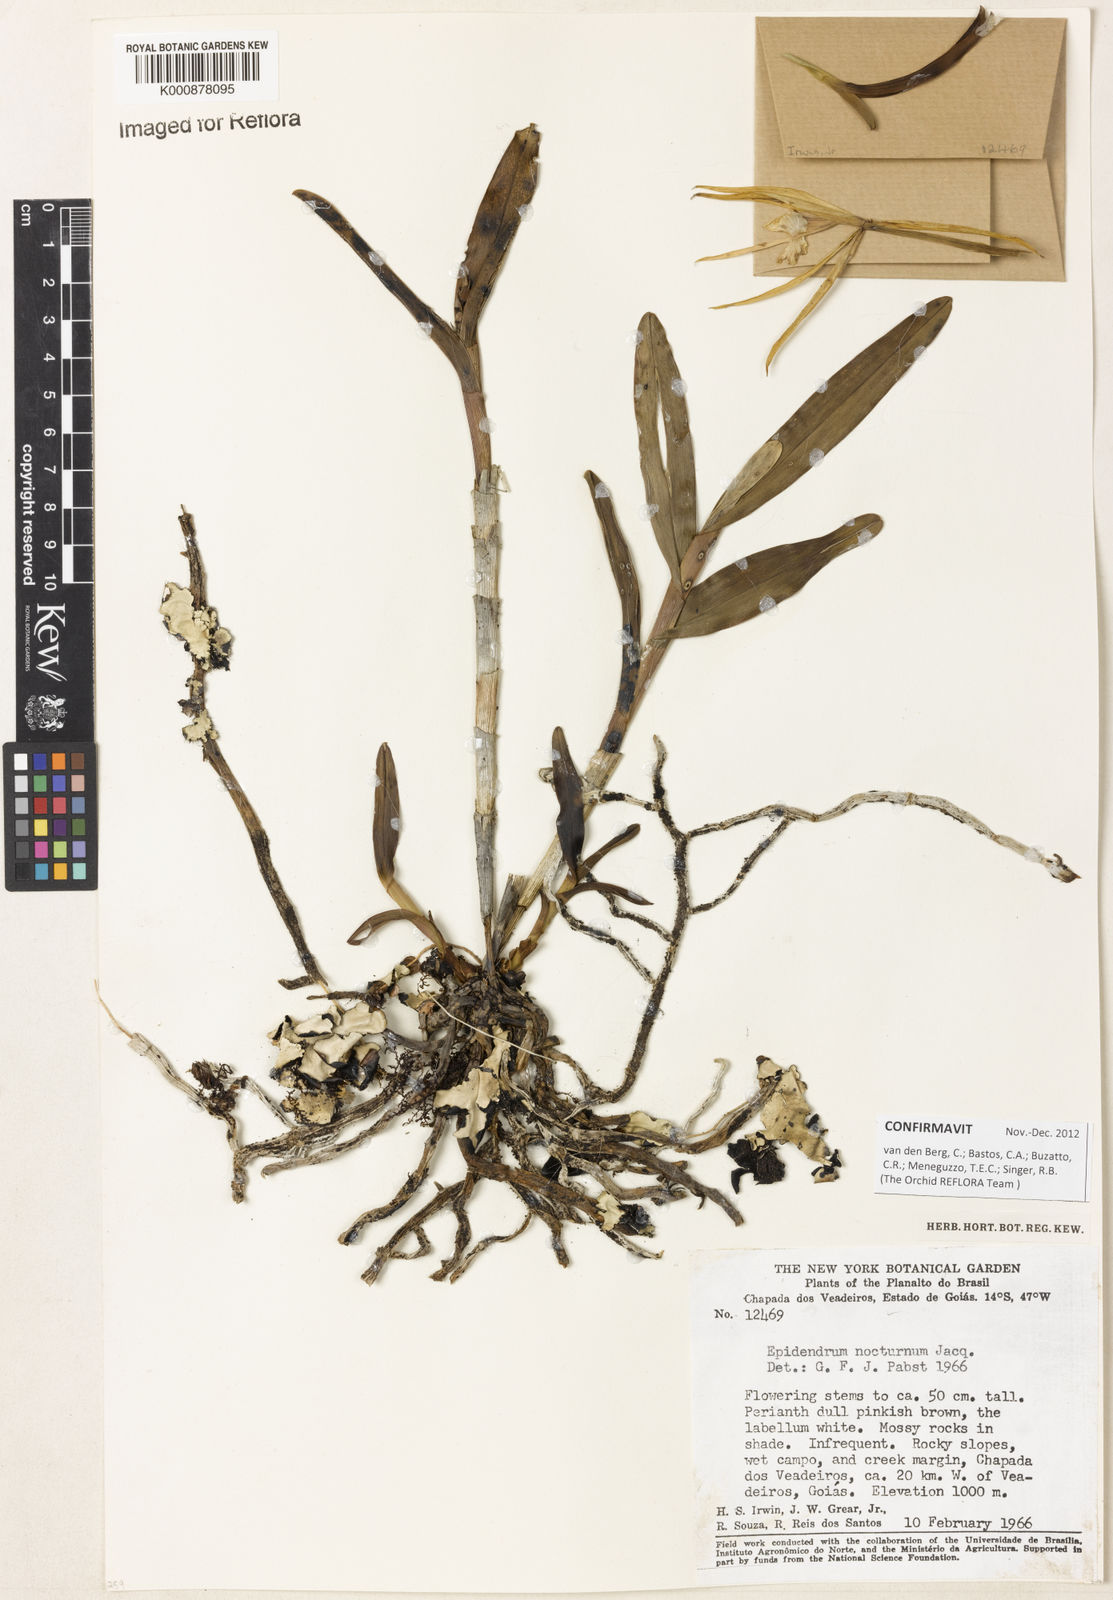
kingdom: Plantae
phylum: Tracheophyta
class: Liliopsida
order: Asparagales
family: Orchidaceae
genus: Epidendrum
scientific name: Epidendrum nocturnum
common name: Night scented orchid
